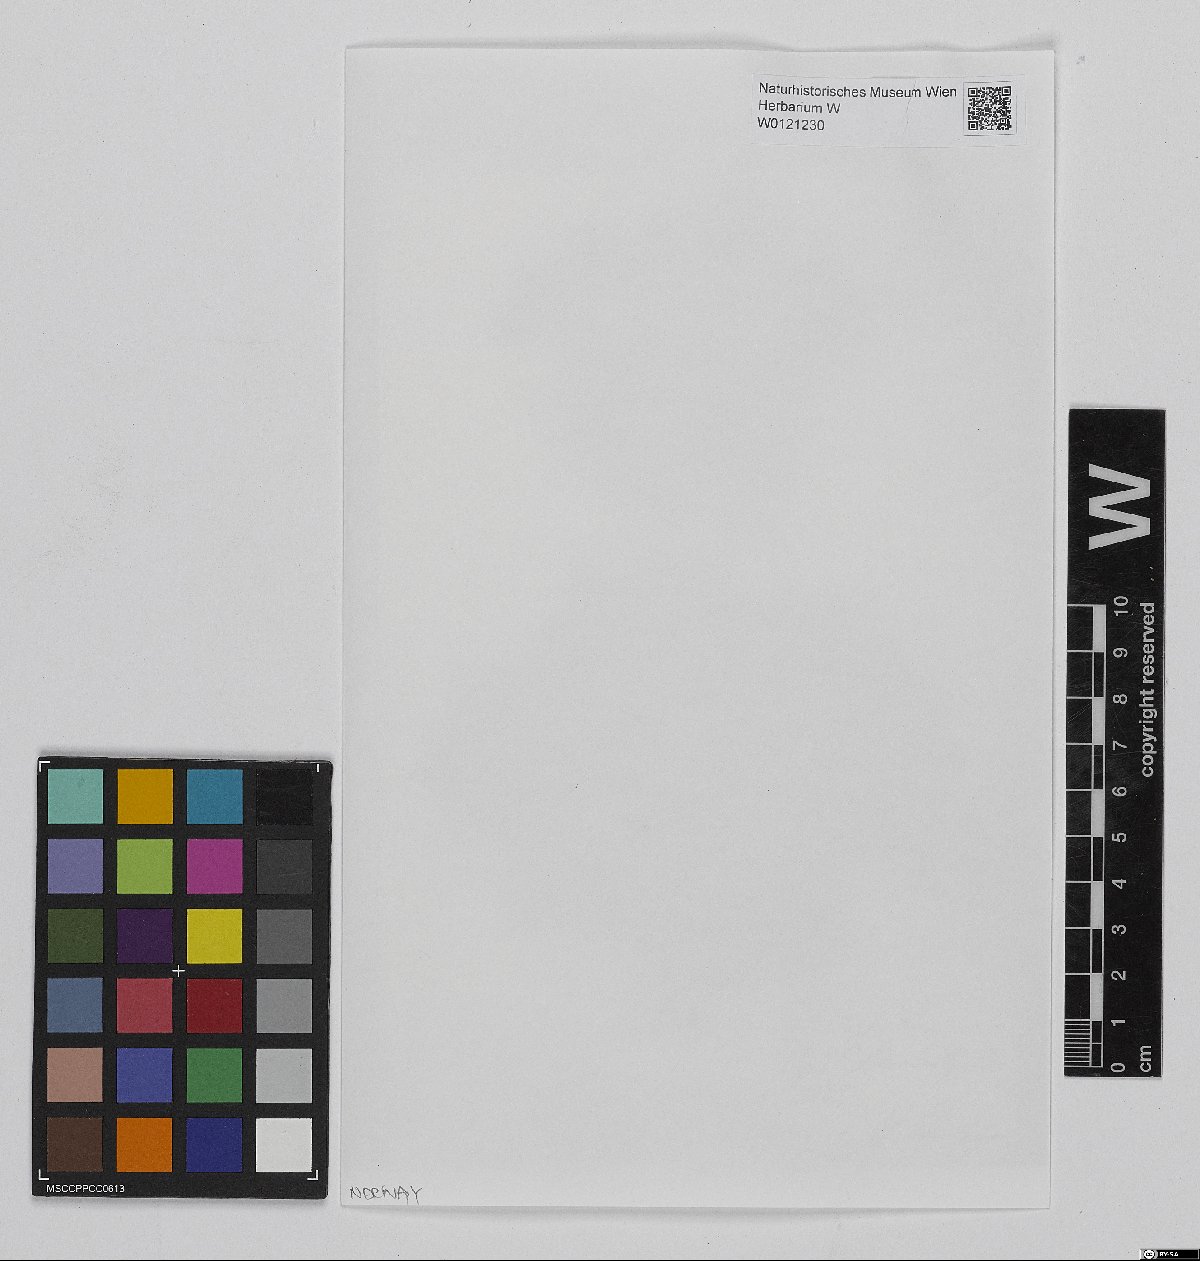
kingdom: Plantae
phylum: Bryophyta
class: Sphagnopsida
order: Sphagnales
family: Sphagnaceae
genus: Sphagnum
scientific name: Sphagnum capillifolium
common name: Small red peat moss
